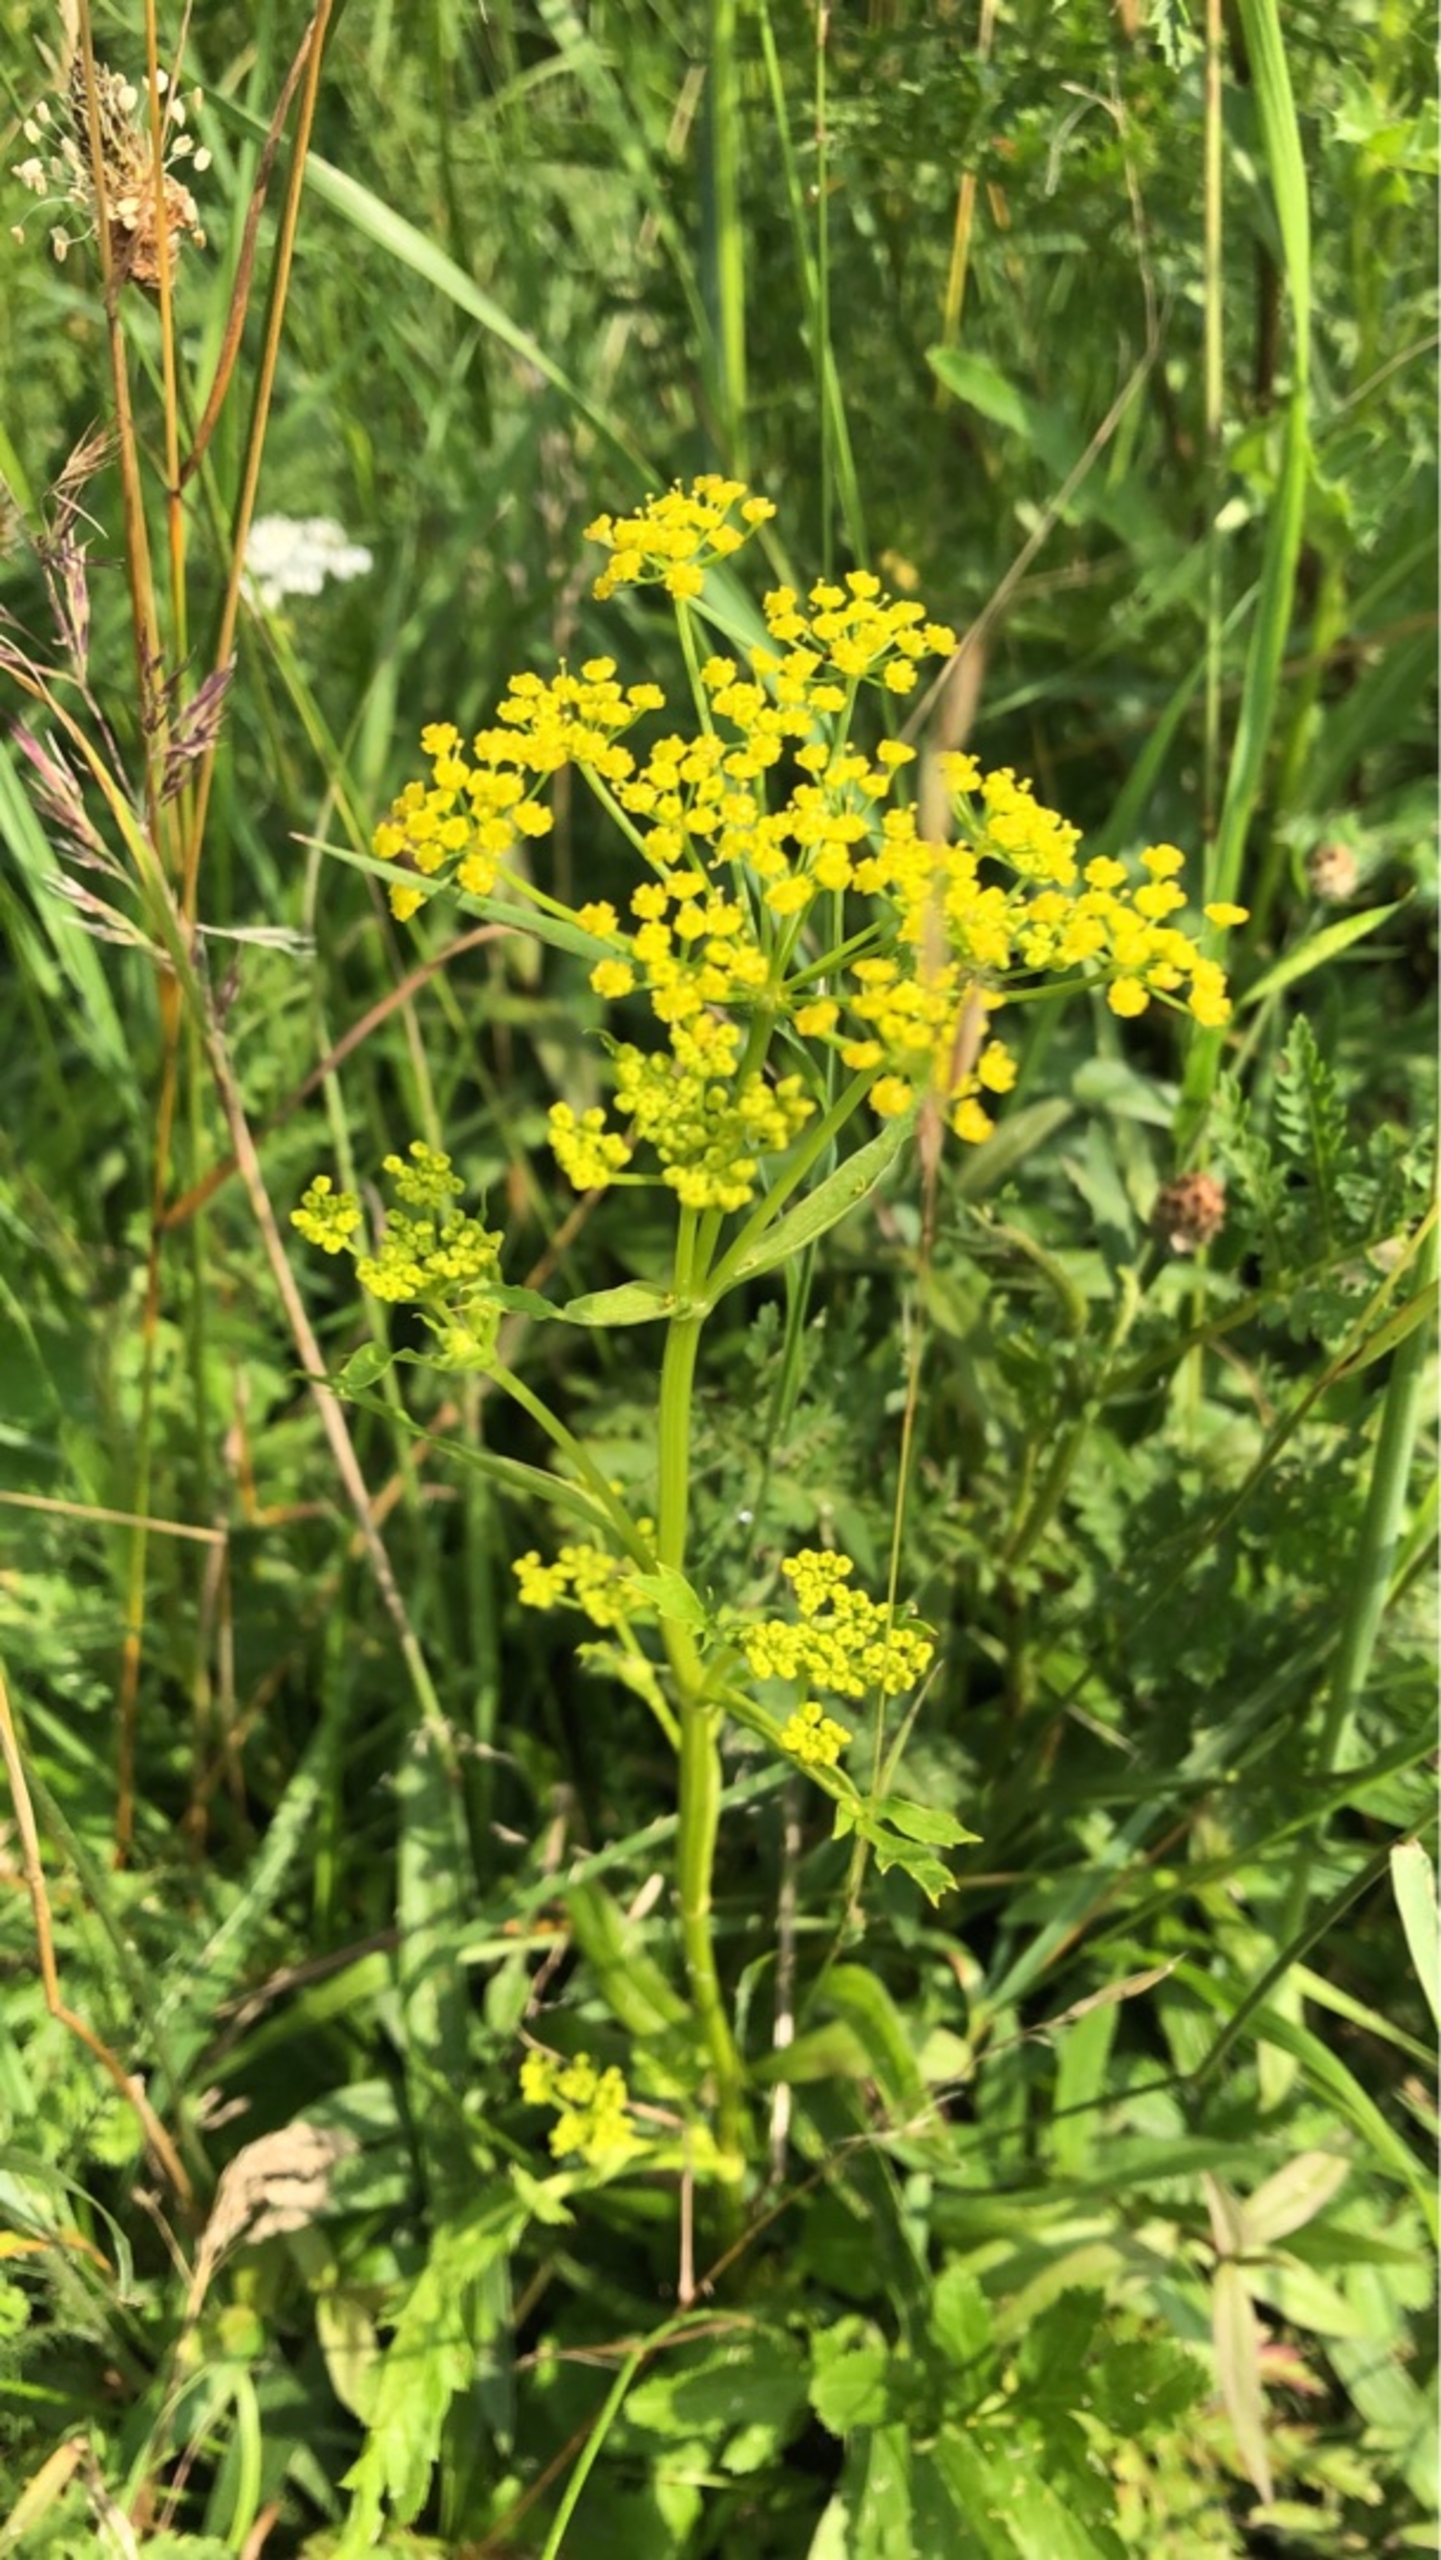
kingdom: Plantae
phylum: Tracheophyta
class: Magnoliopsida
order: Apiales
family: Apiaceae
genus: Pastinaca
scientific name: Pastinaca sativa
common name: Pastinak
